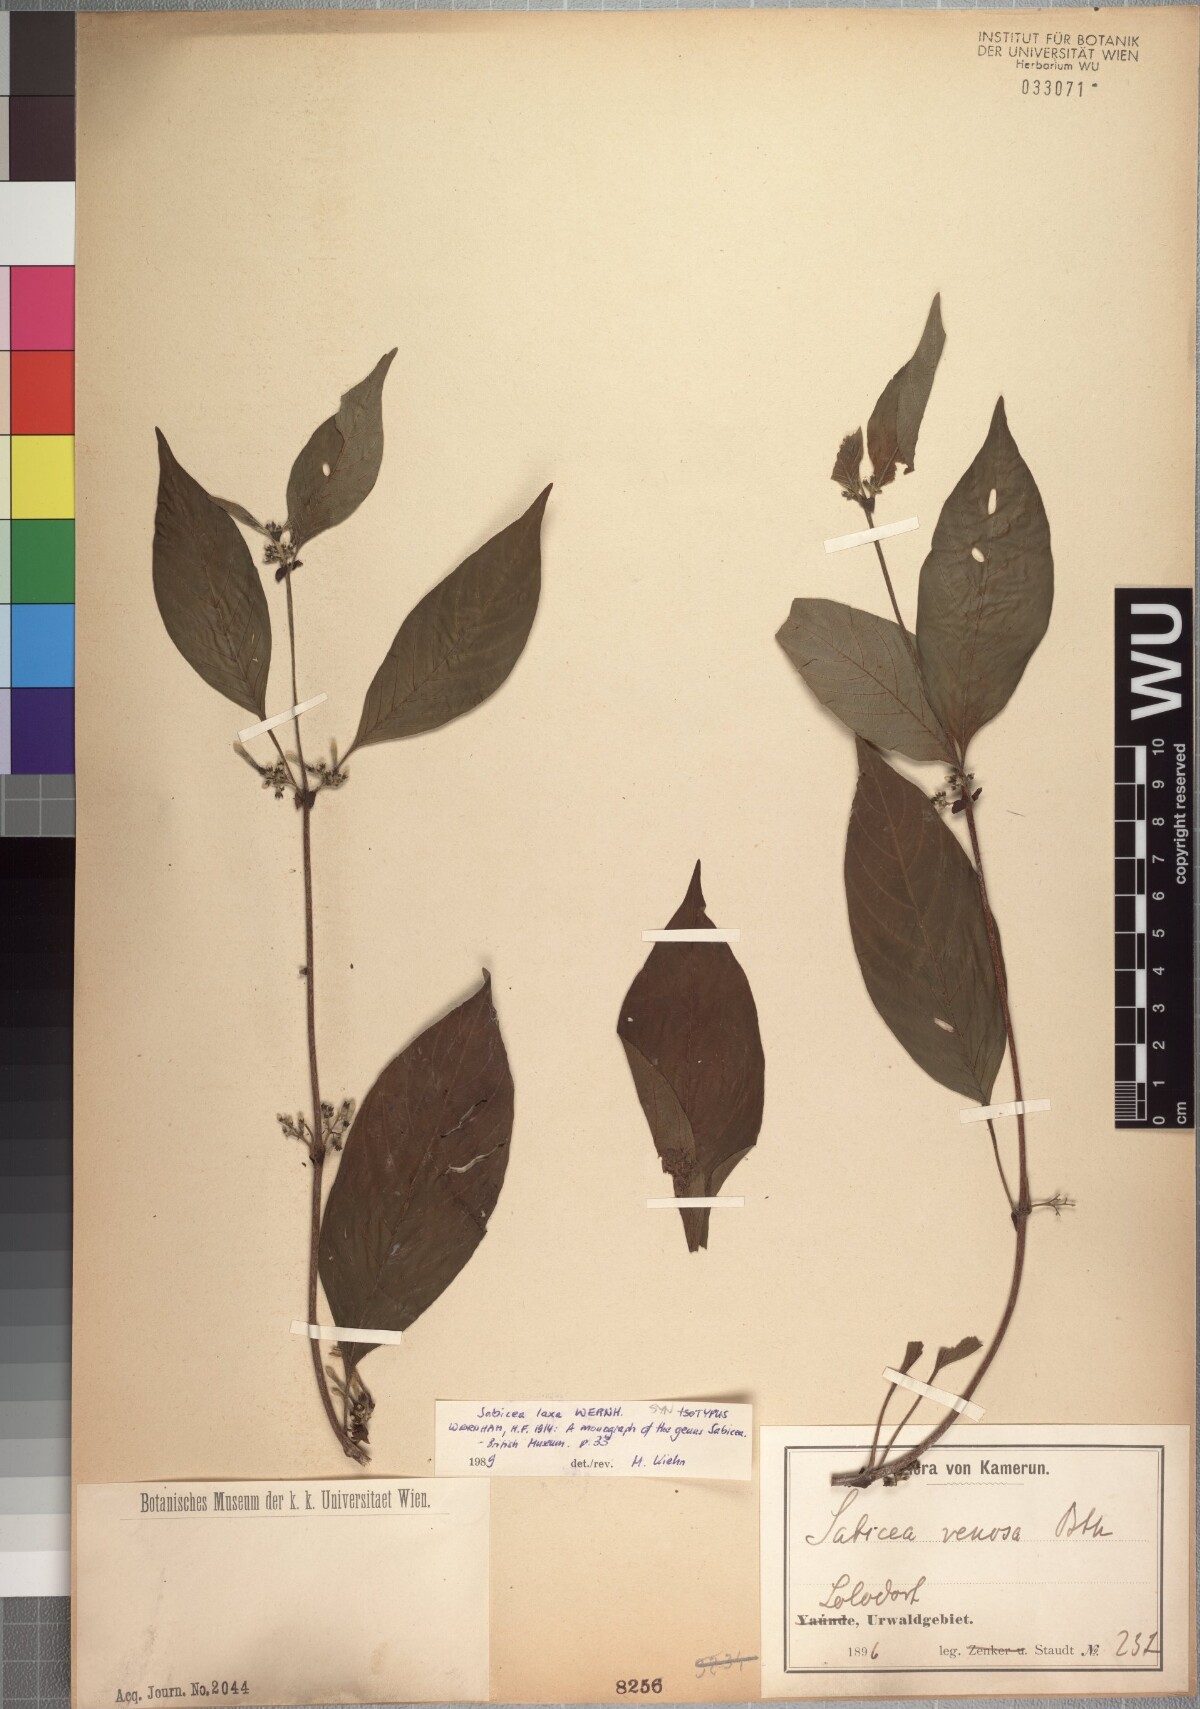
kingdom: Plantae
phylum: Tracheophyta
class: Magnoliopsida
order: Gentianales
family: Rubiaceae
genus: Sabicea
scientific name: Sabicea laxa
